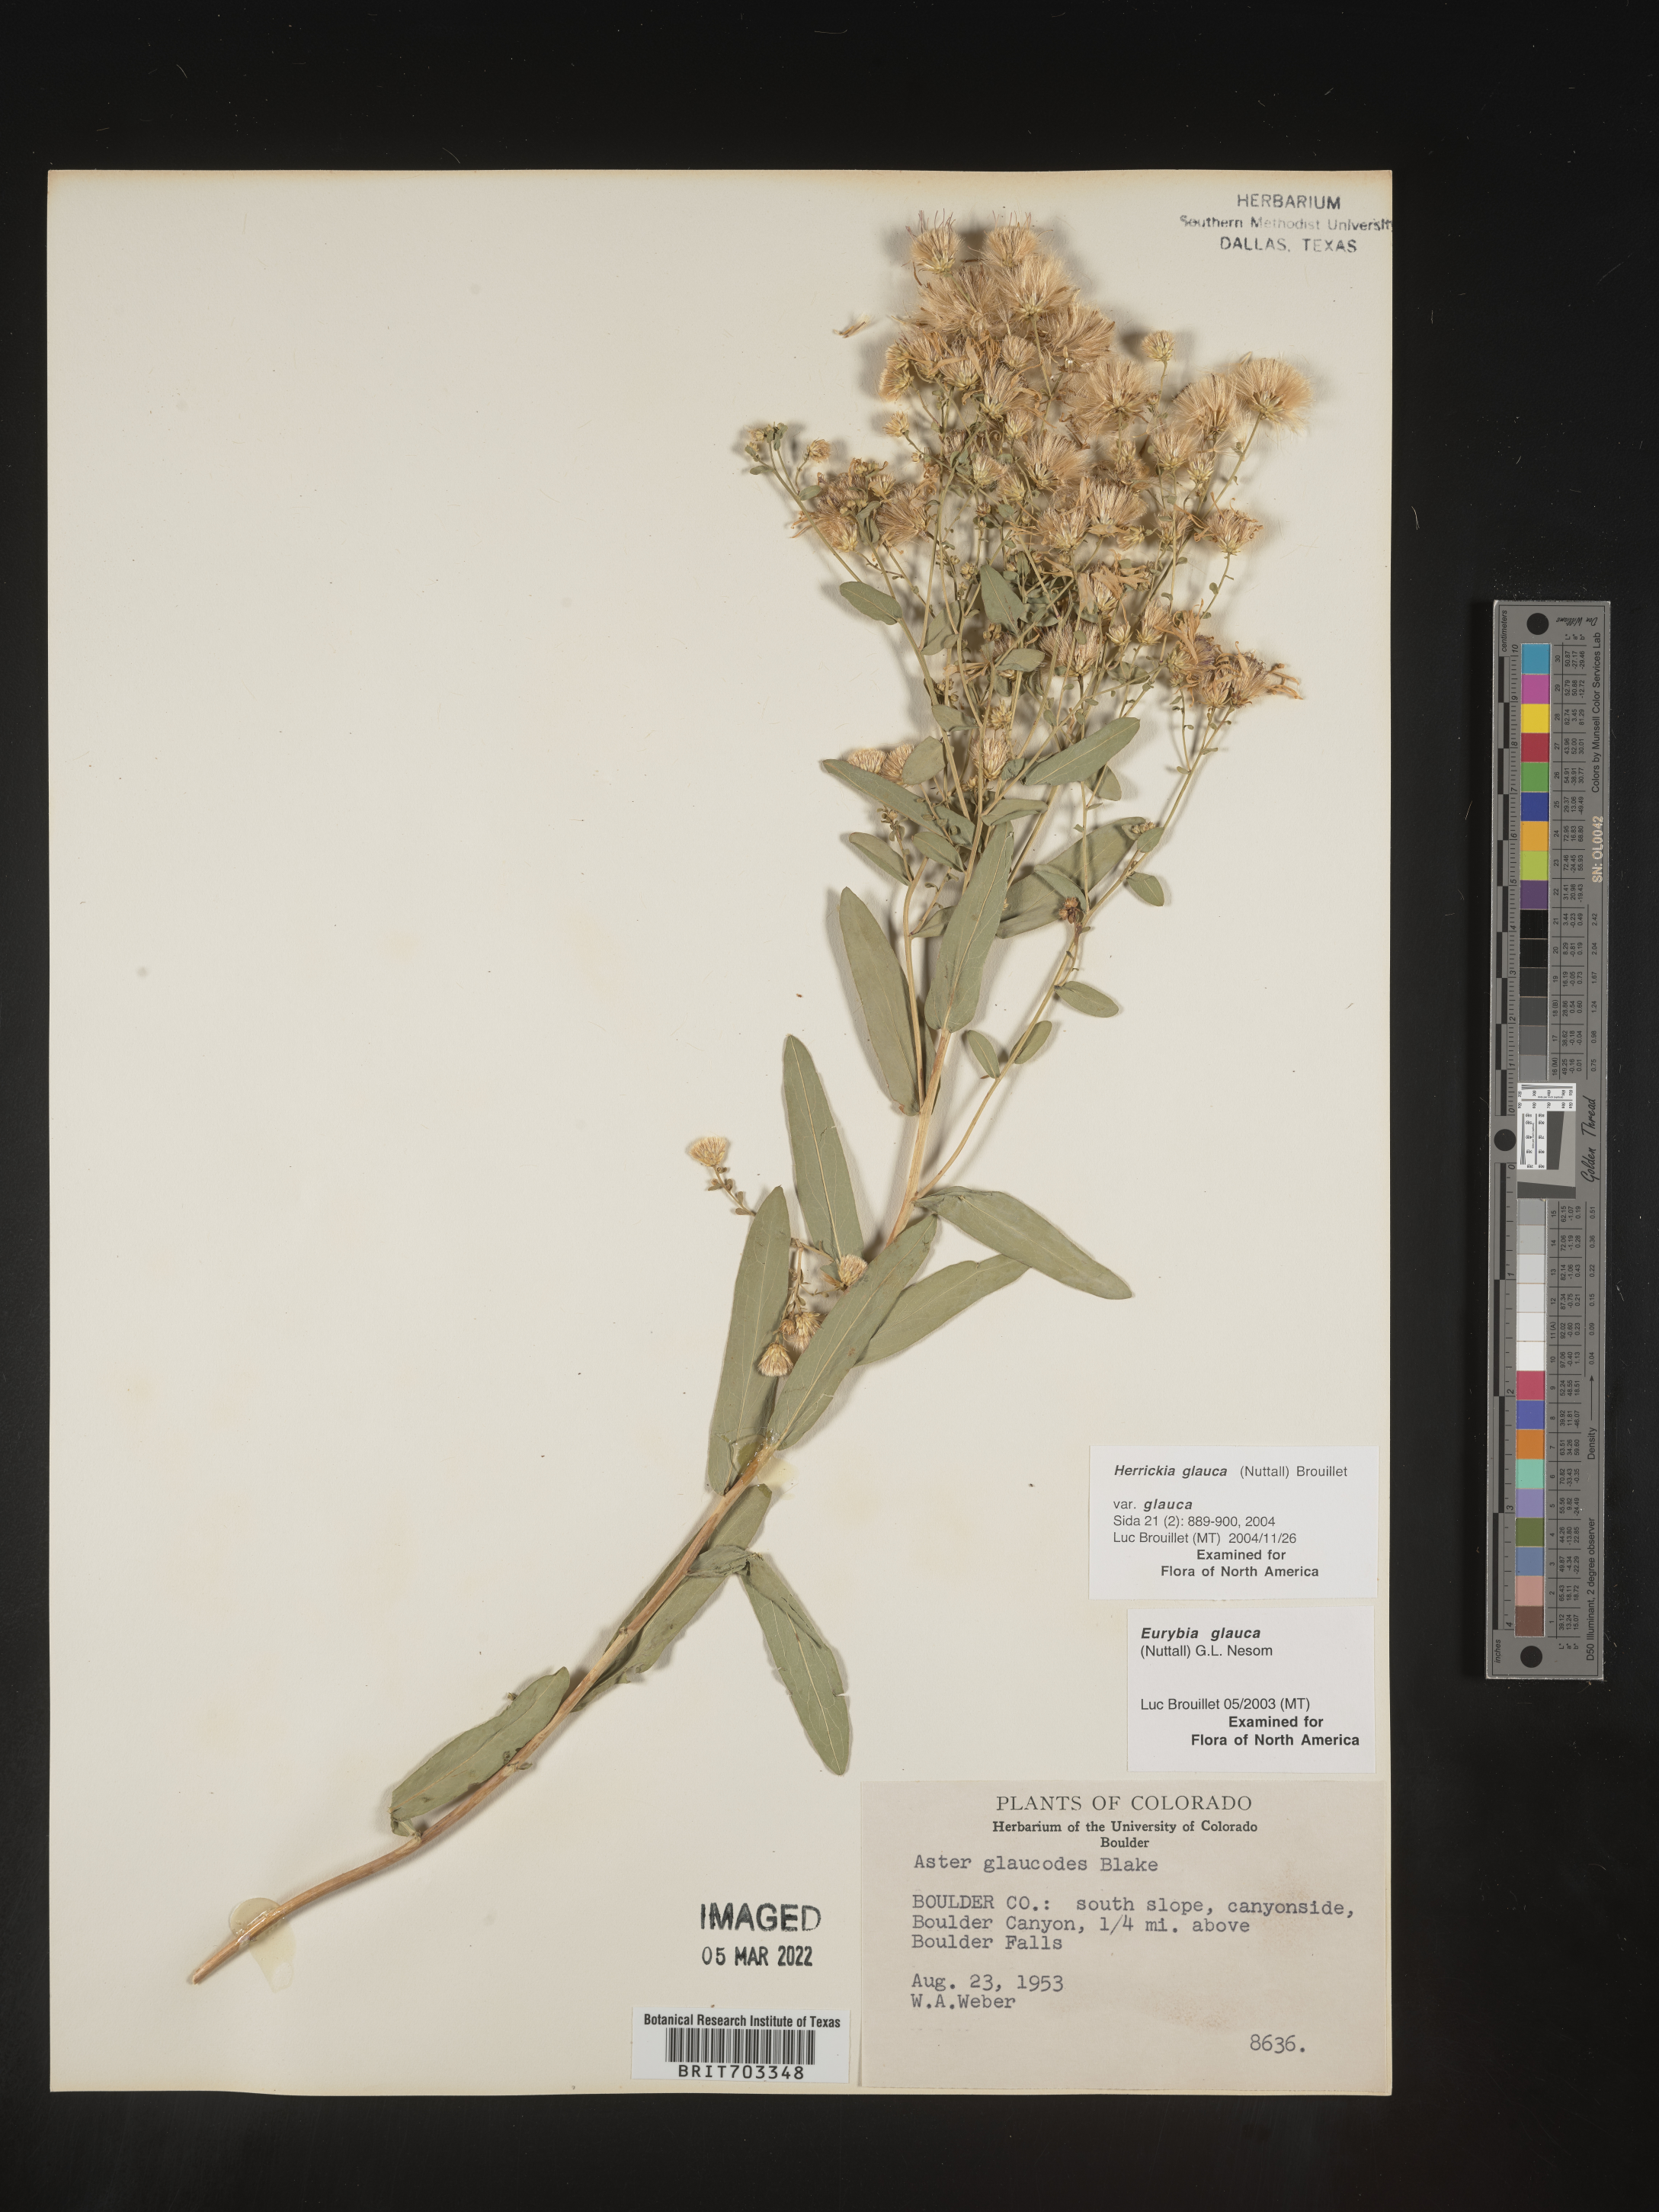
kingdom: Plantae
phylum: Tracheophyta
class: Magnoliopsida
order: Asterales
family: Asteraceae
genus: Eurybia
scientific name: Eurybia glauca
